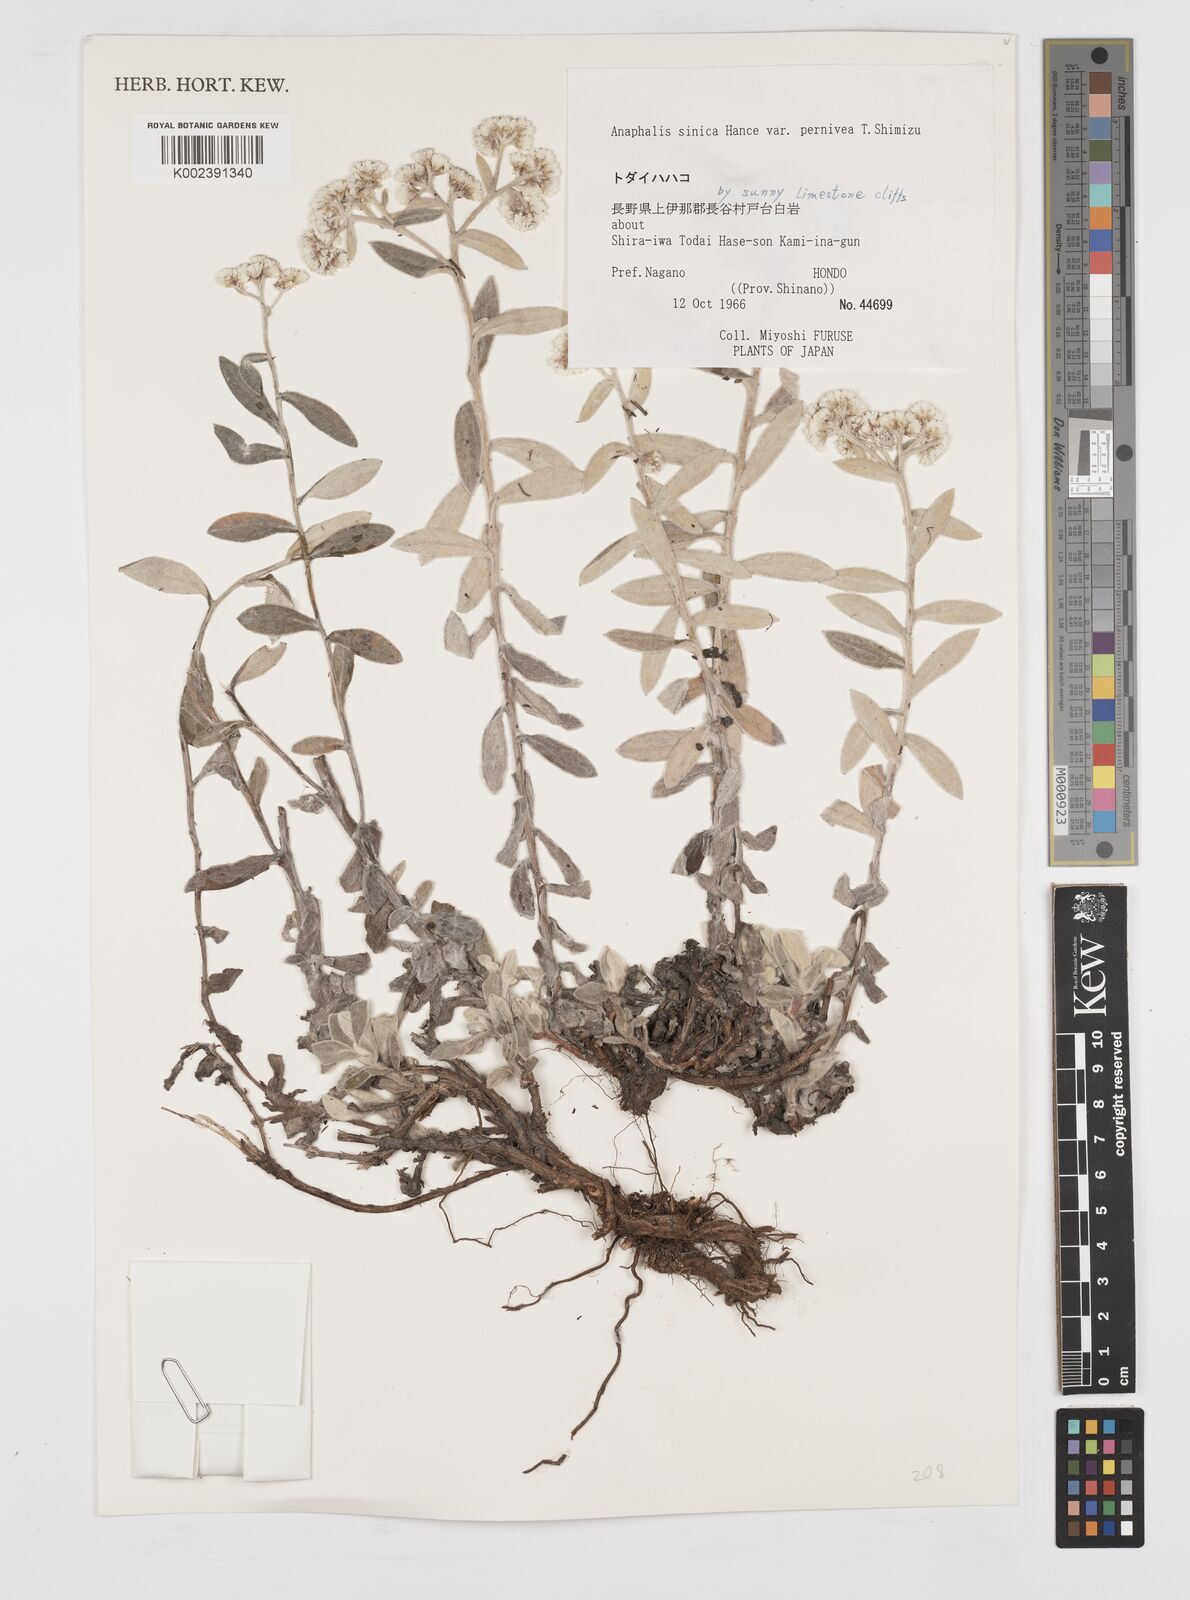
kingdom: Plantae
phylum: Tracheophyta
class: Magnoliopsida
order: Asterales
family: Asteraceae
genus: Anaphalis
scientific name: Anaphalis sinica
